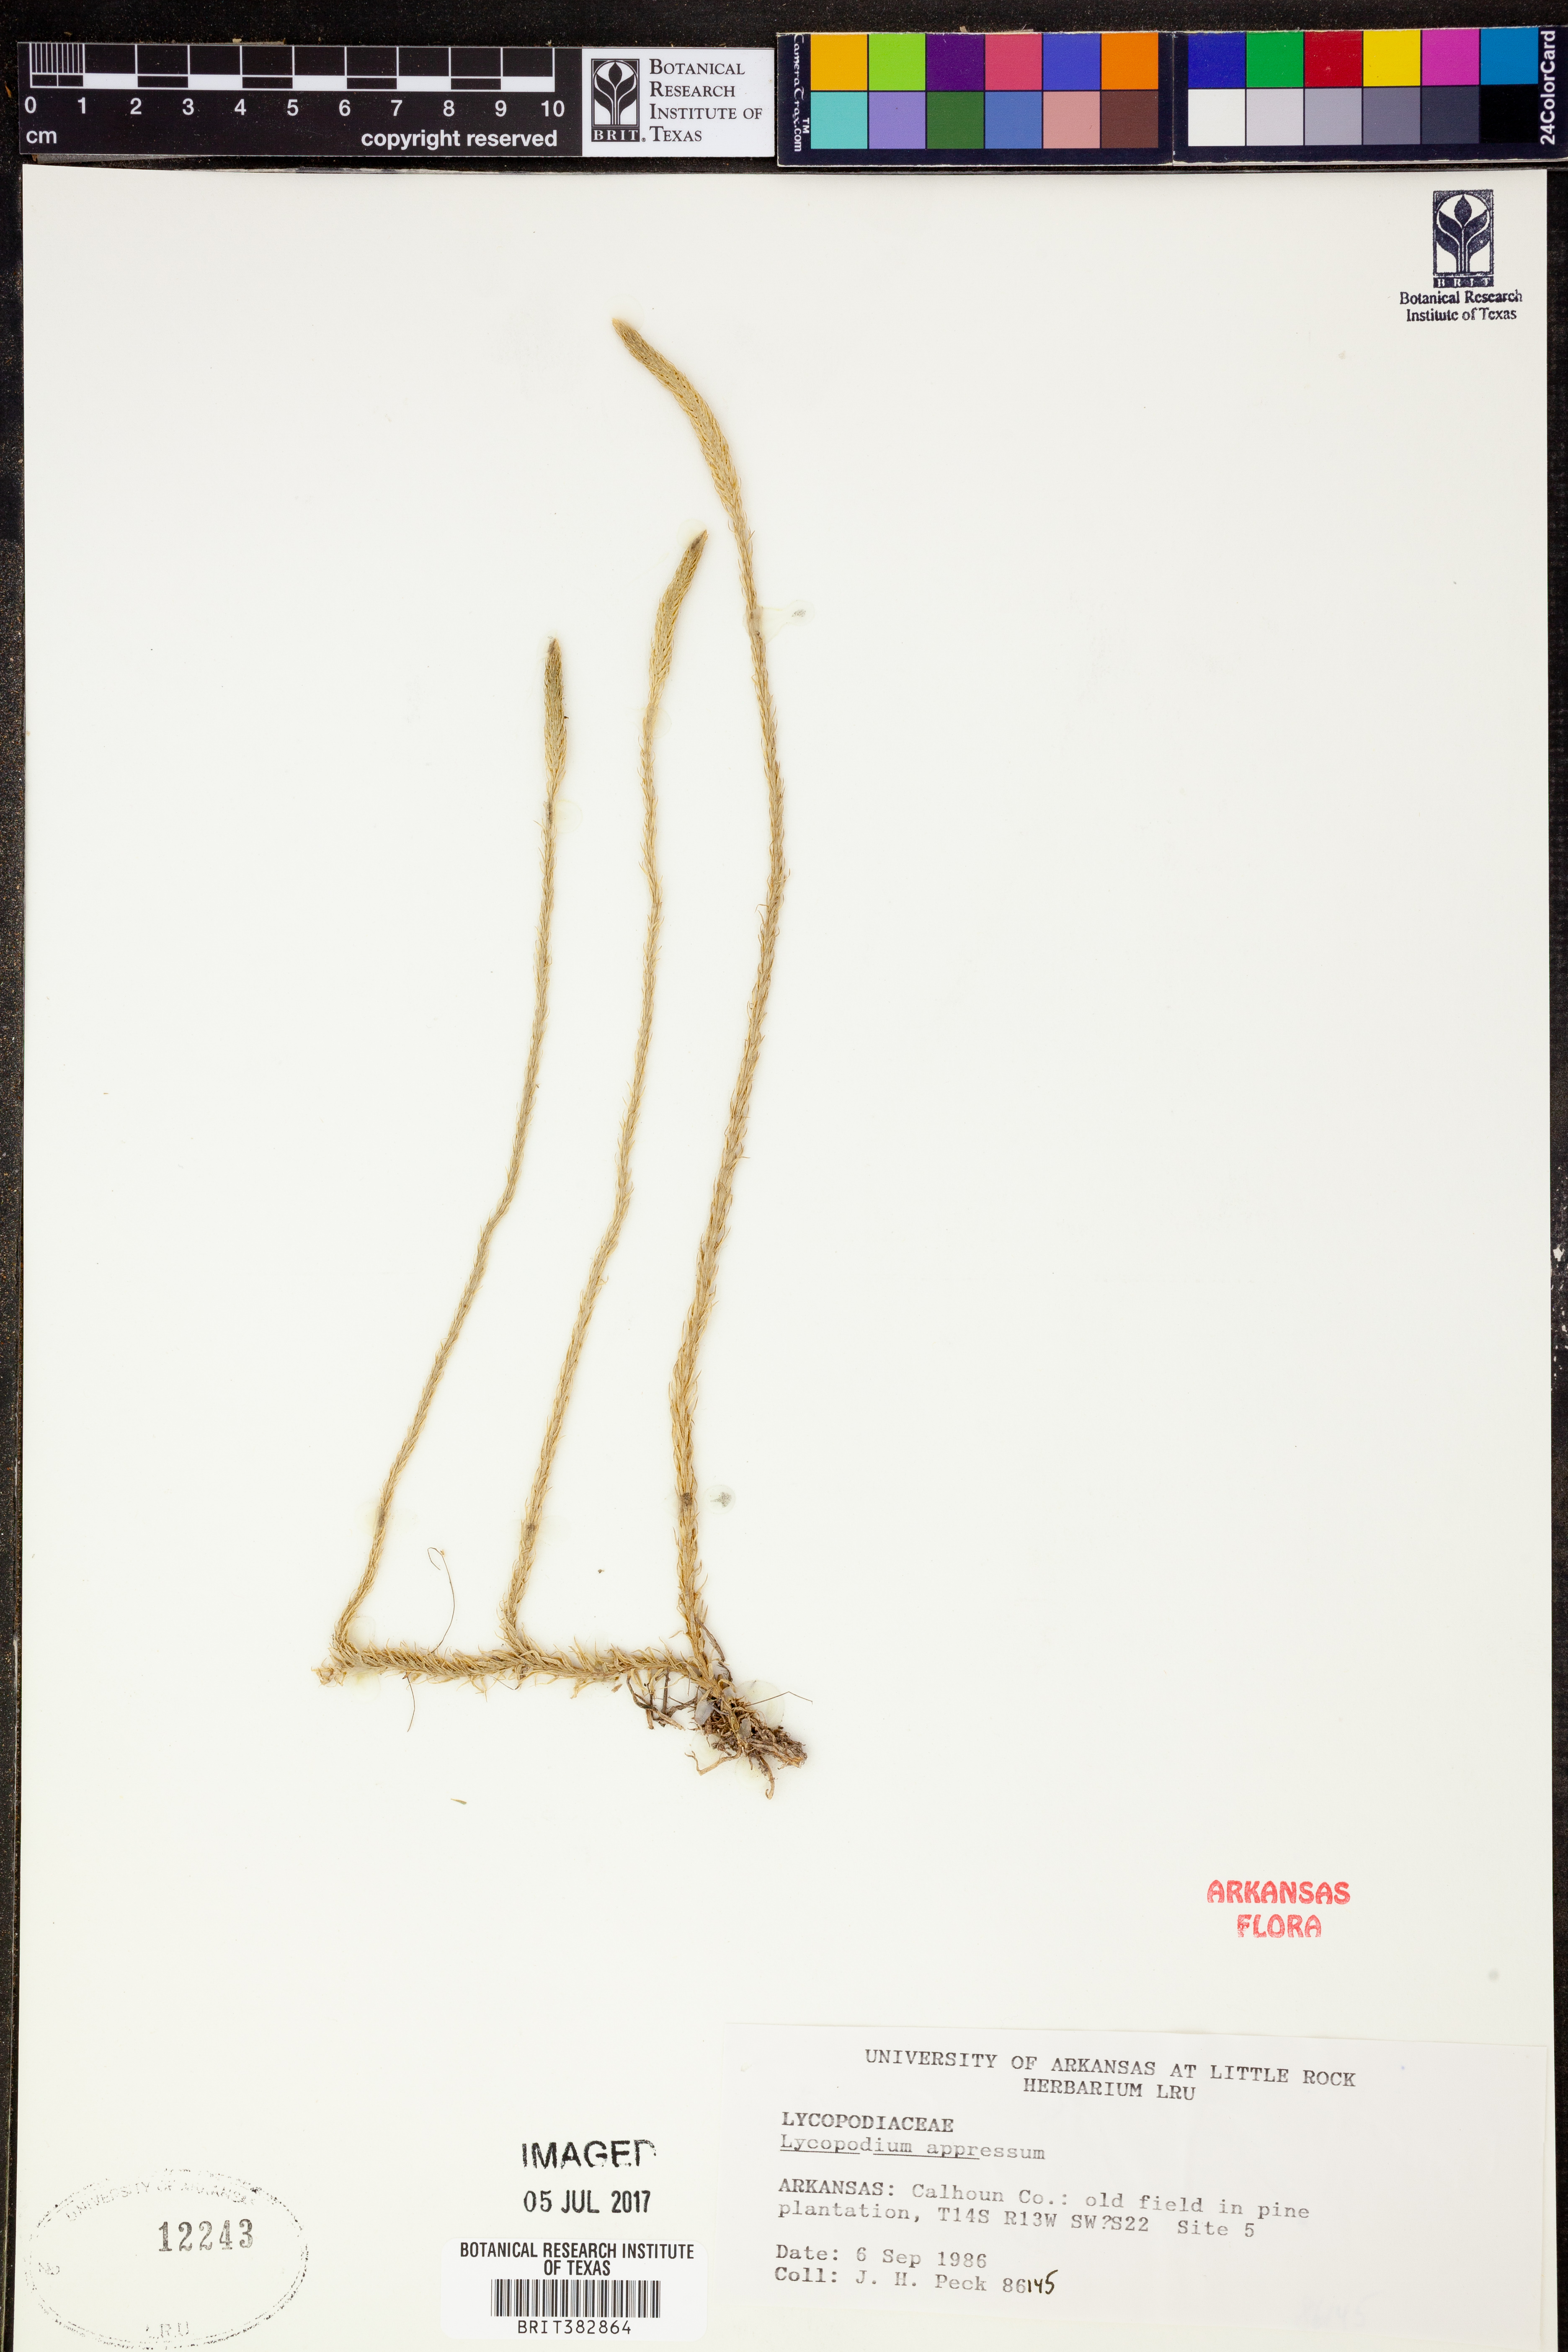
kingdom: Plantae
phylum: Tracheophyta
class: Lycopodiopsida
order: Lycopodiales
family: Lycopodiaceae
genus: Lycopodiella
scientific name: Lycopodiella appressa
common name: Appressed bog clubmoss
